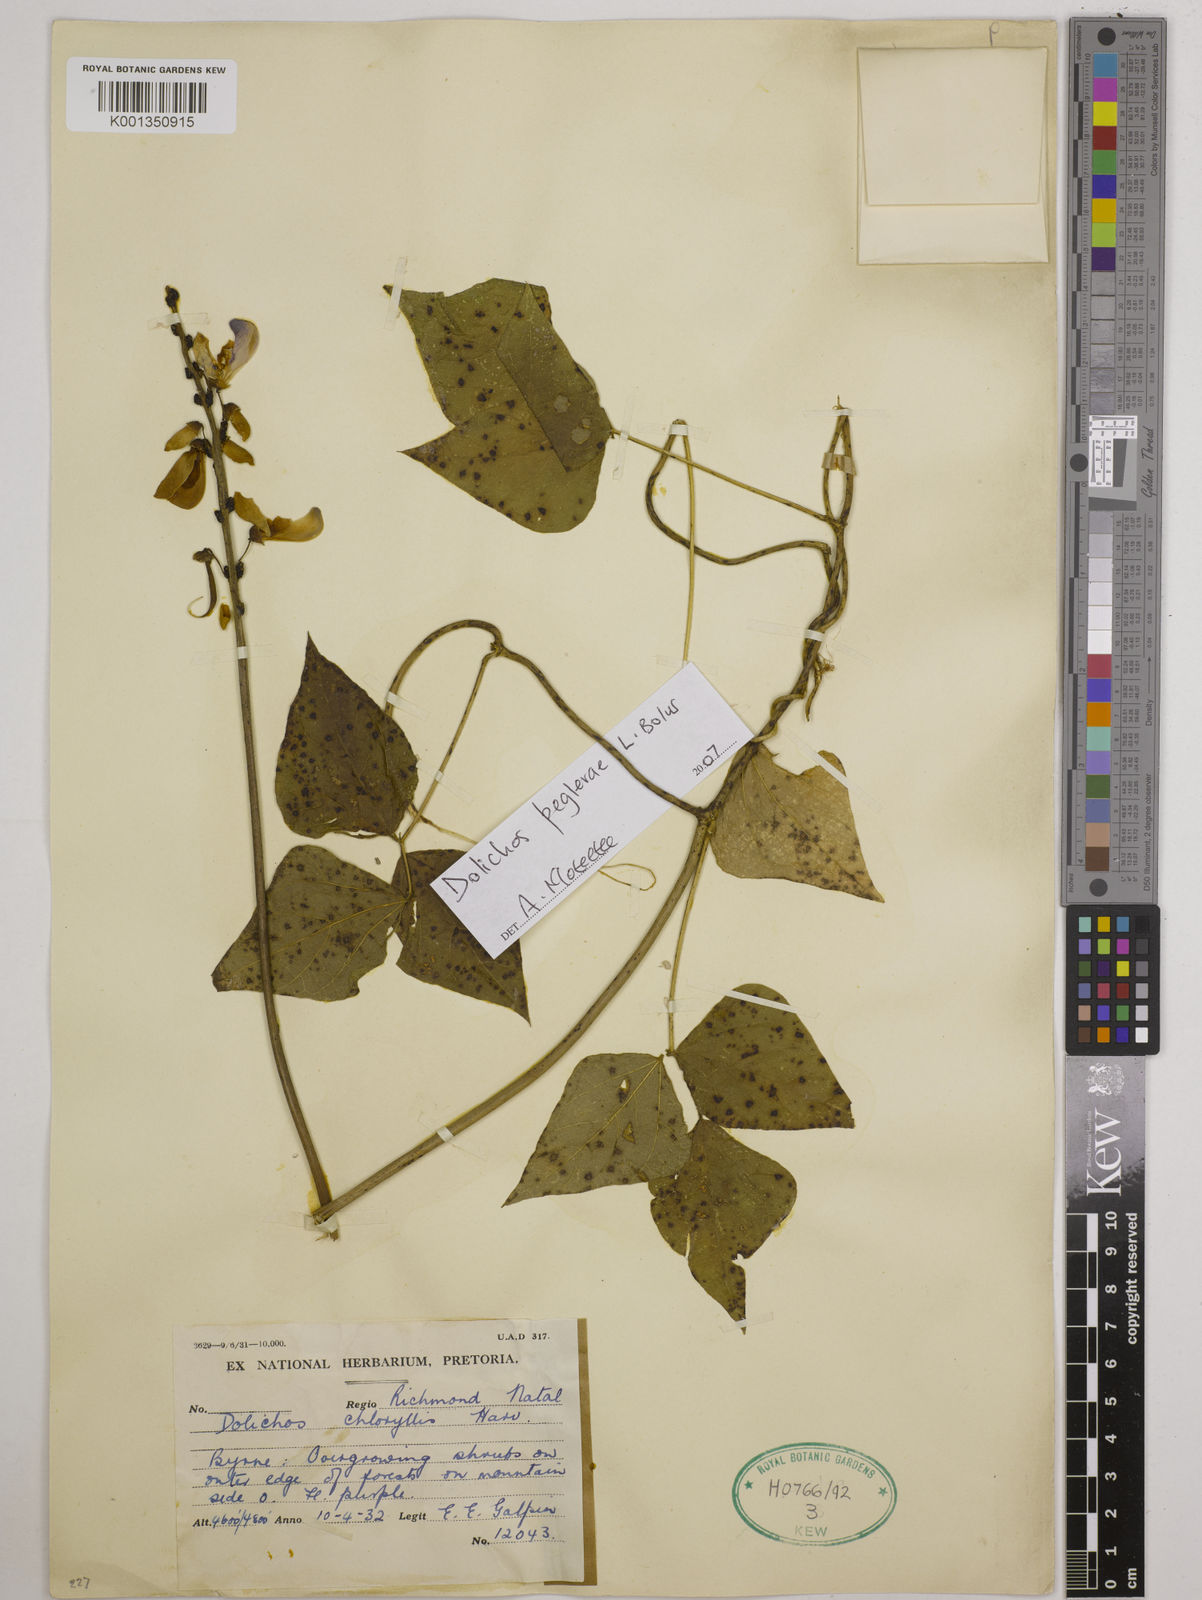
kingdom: Plantae
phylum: Tracheophyta
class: Magnoliopsida
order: Fabales
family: Fabaceae
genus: Dolichos
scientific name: Dolichos peglerae
